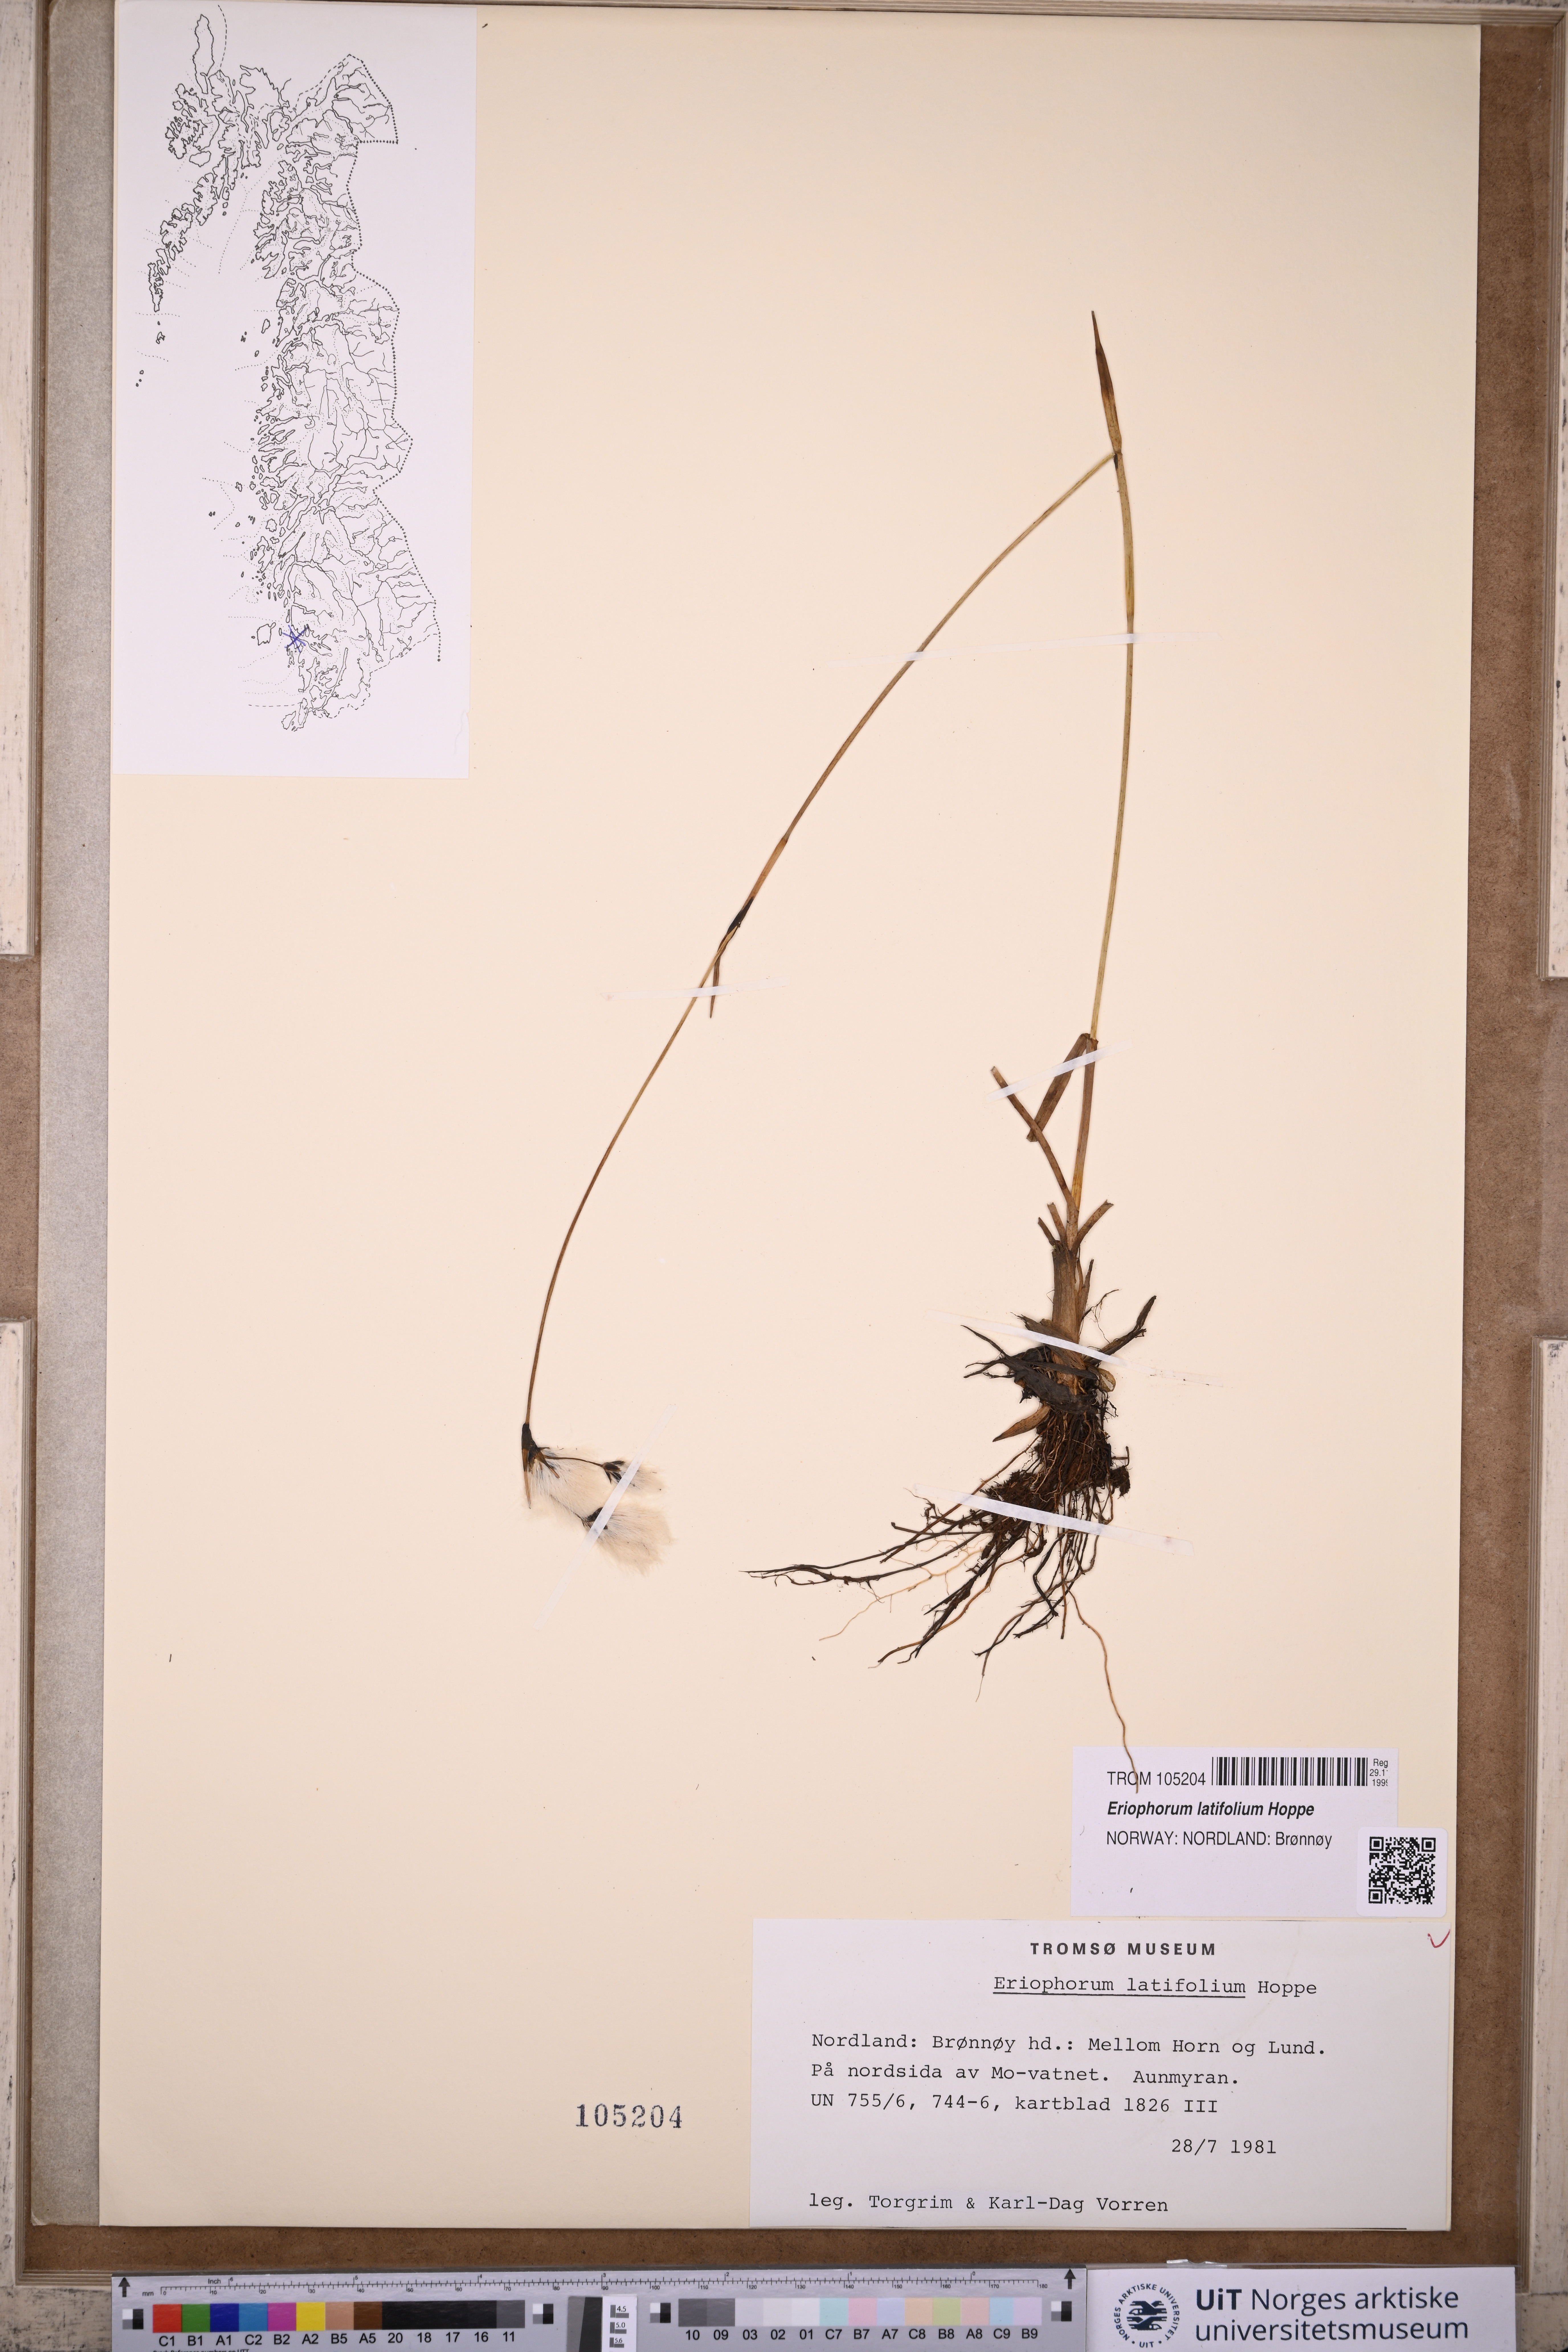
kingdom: Plantae
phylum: Tracheophyta
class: Liliopsida
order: Poales
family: Cyperaceae
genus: Eriophorum
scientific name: Eriophorum latifolium
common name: Broad-leaved cottongrass
